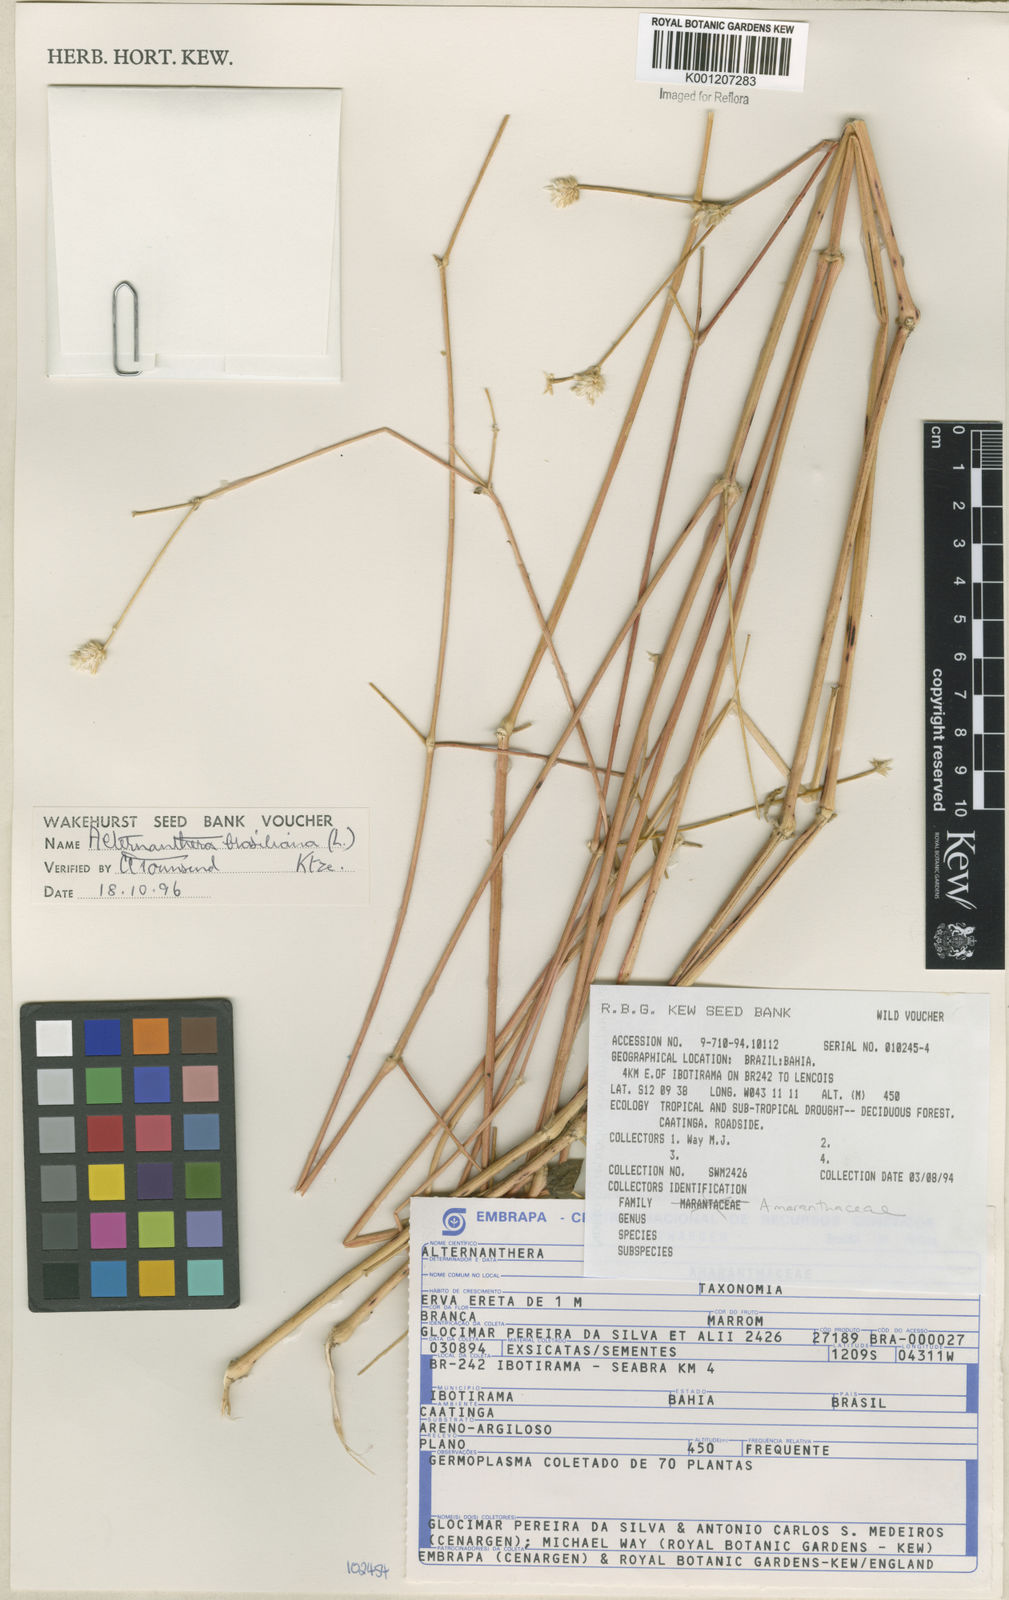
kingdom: Plantae
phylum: Tracheophyta
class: Magnoliopsida
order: Caryophyllales
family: Amaranthaceae
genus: Alternanthera
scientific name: Alternanthera brasiliana
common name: Brazilian joyweed
